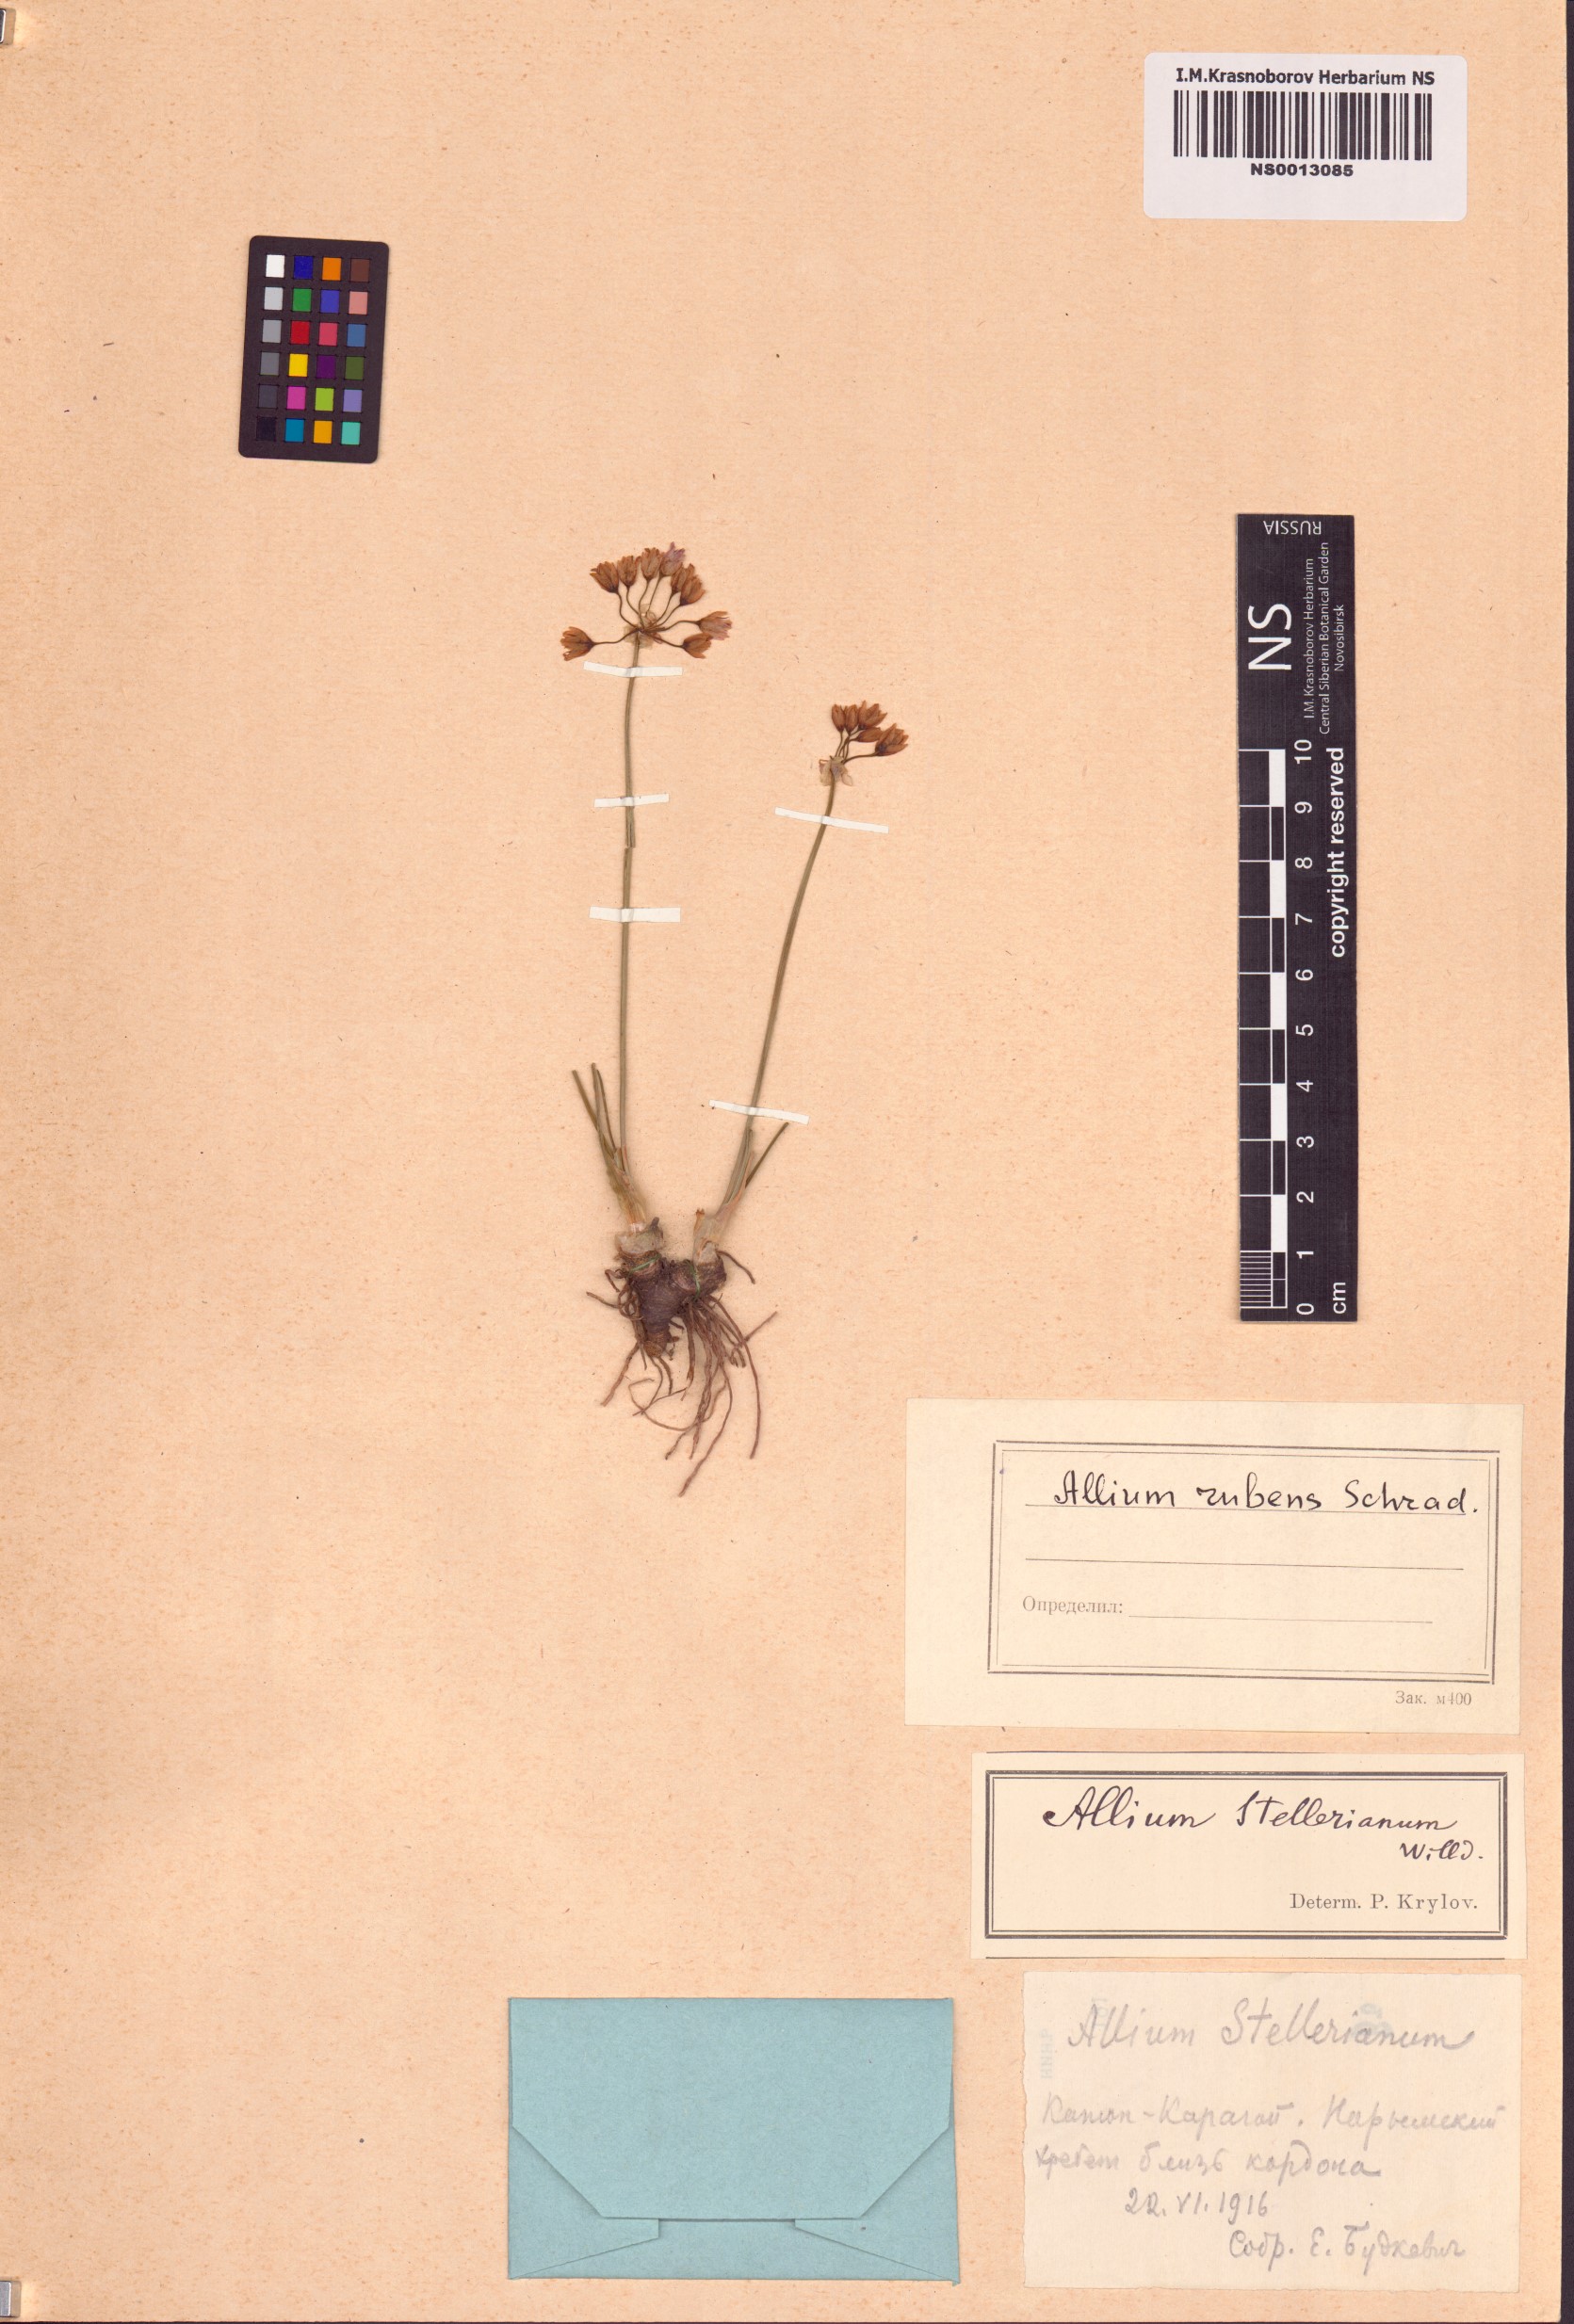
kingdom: Plantae
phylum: Tracheophyta
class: Liliopsida
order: Asparagales
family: Amaryllidaceae
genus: Allium
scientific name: Allium rubens
